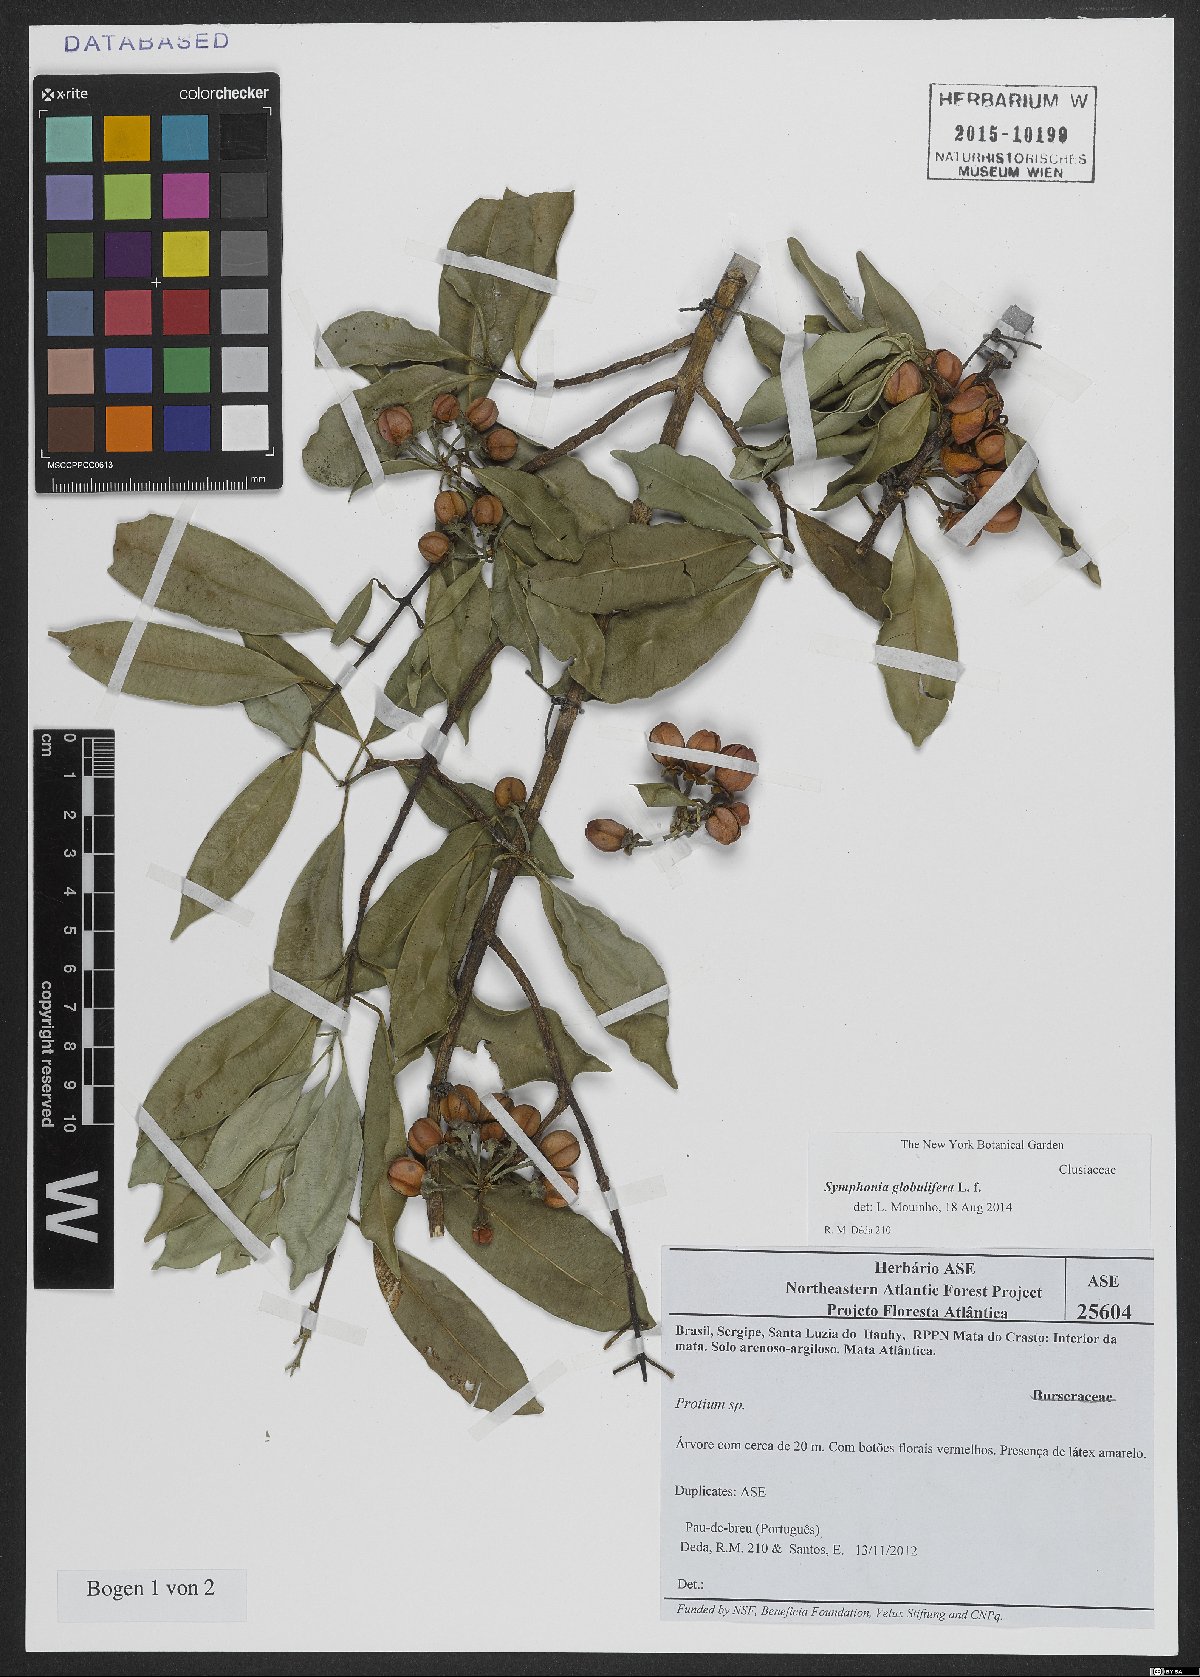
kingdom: Plantae
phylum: Tracheophyta
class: Magnoliopsida
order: Malpighiales
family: Clusiaceae
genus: Symphonia
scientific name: Symphonia globulifera
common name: Boarwood
